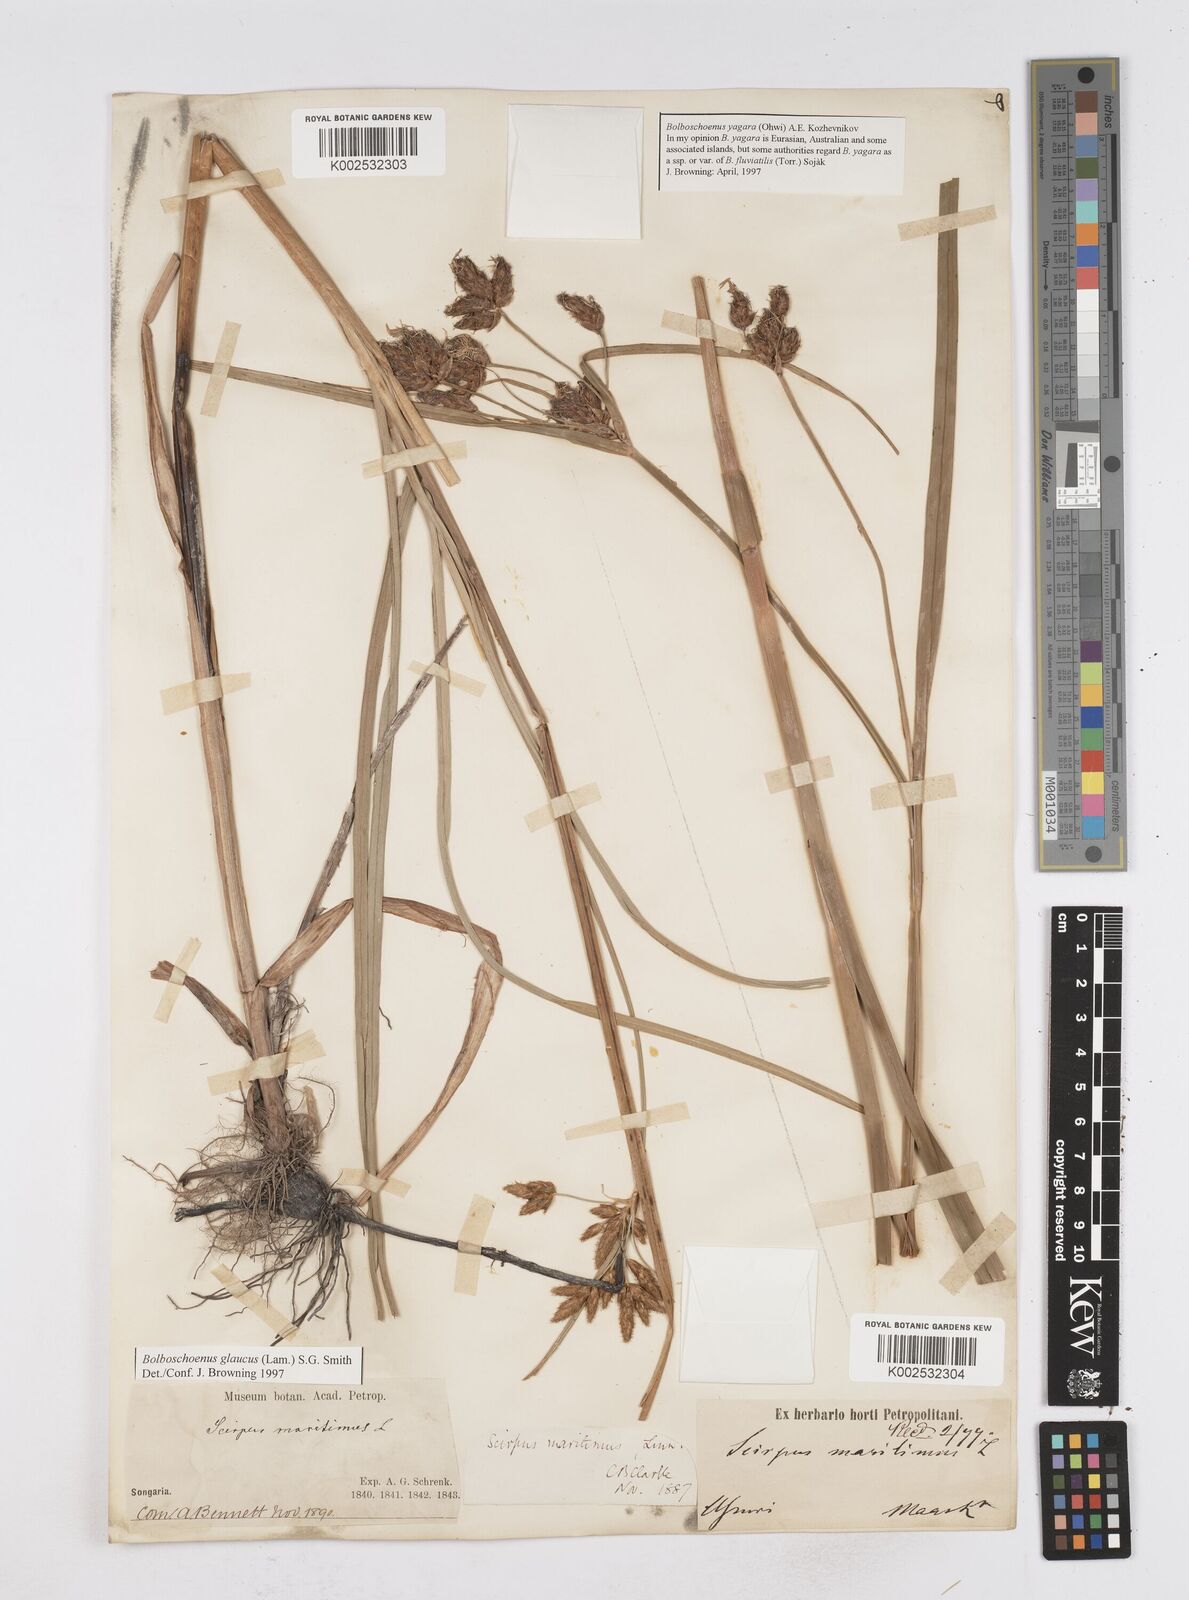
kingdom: Plantae
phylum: Tracheophyta
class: Liliopsida
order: Poales
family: Cyperaceae
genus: Bolboschoenus
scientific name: Bolboschoenus maritimus
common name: Sea club-rush
